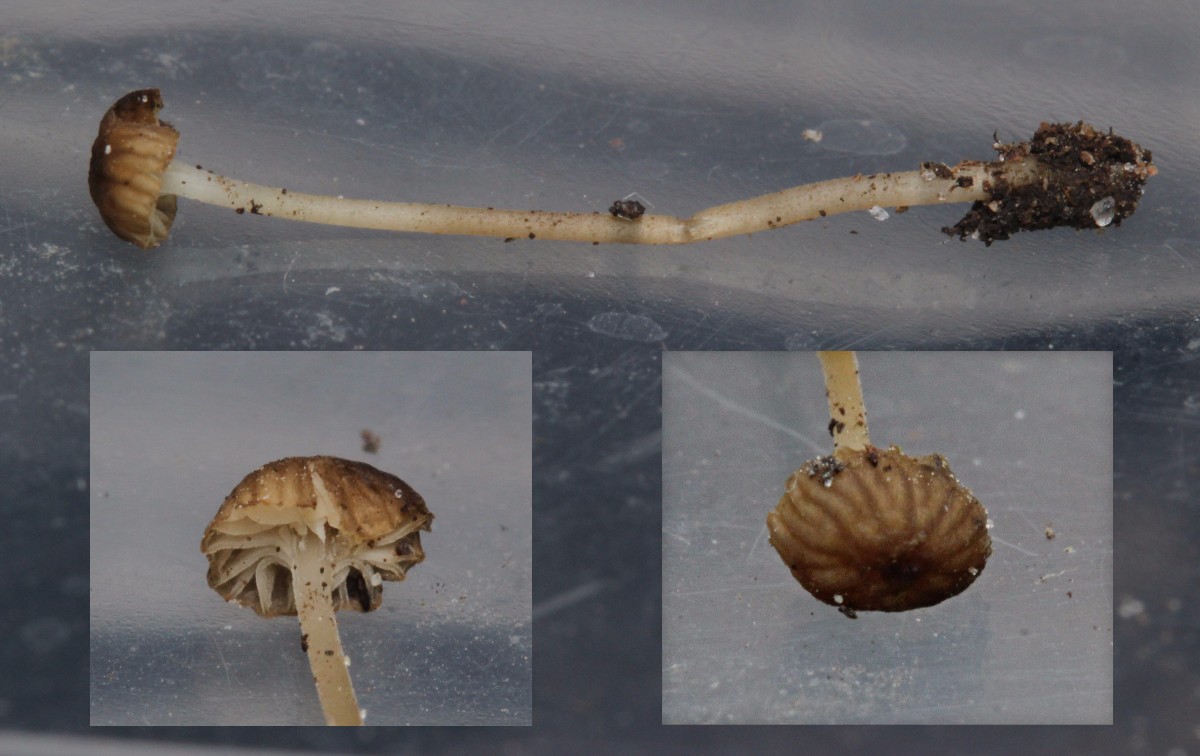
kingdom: Fungi
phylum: Basidiomycota
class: Agaricomycetes
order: Agaricales
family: Porotheleaceae
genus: Phloeomana
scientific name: Phloeomana speirea
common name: kvist-huesvamp
